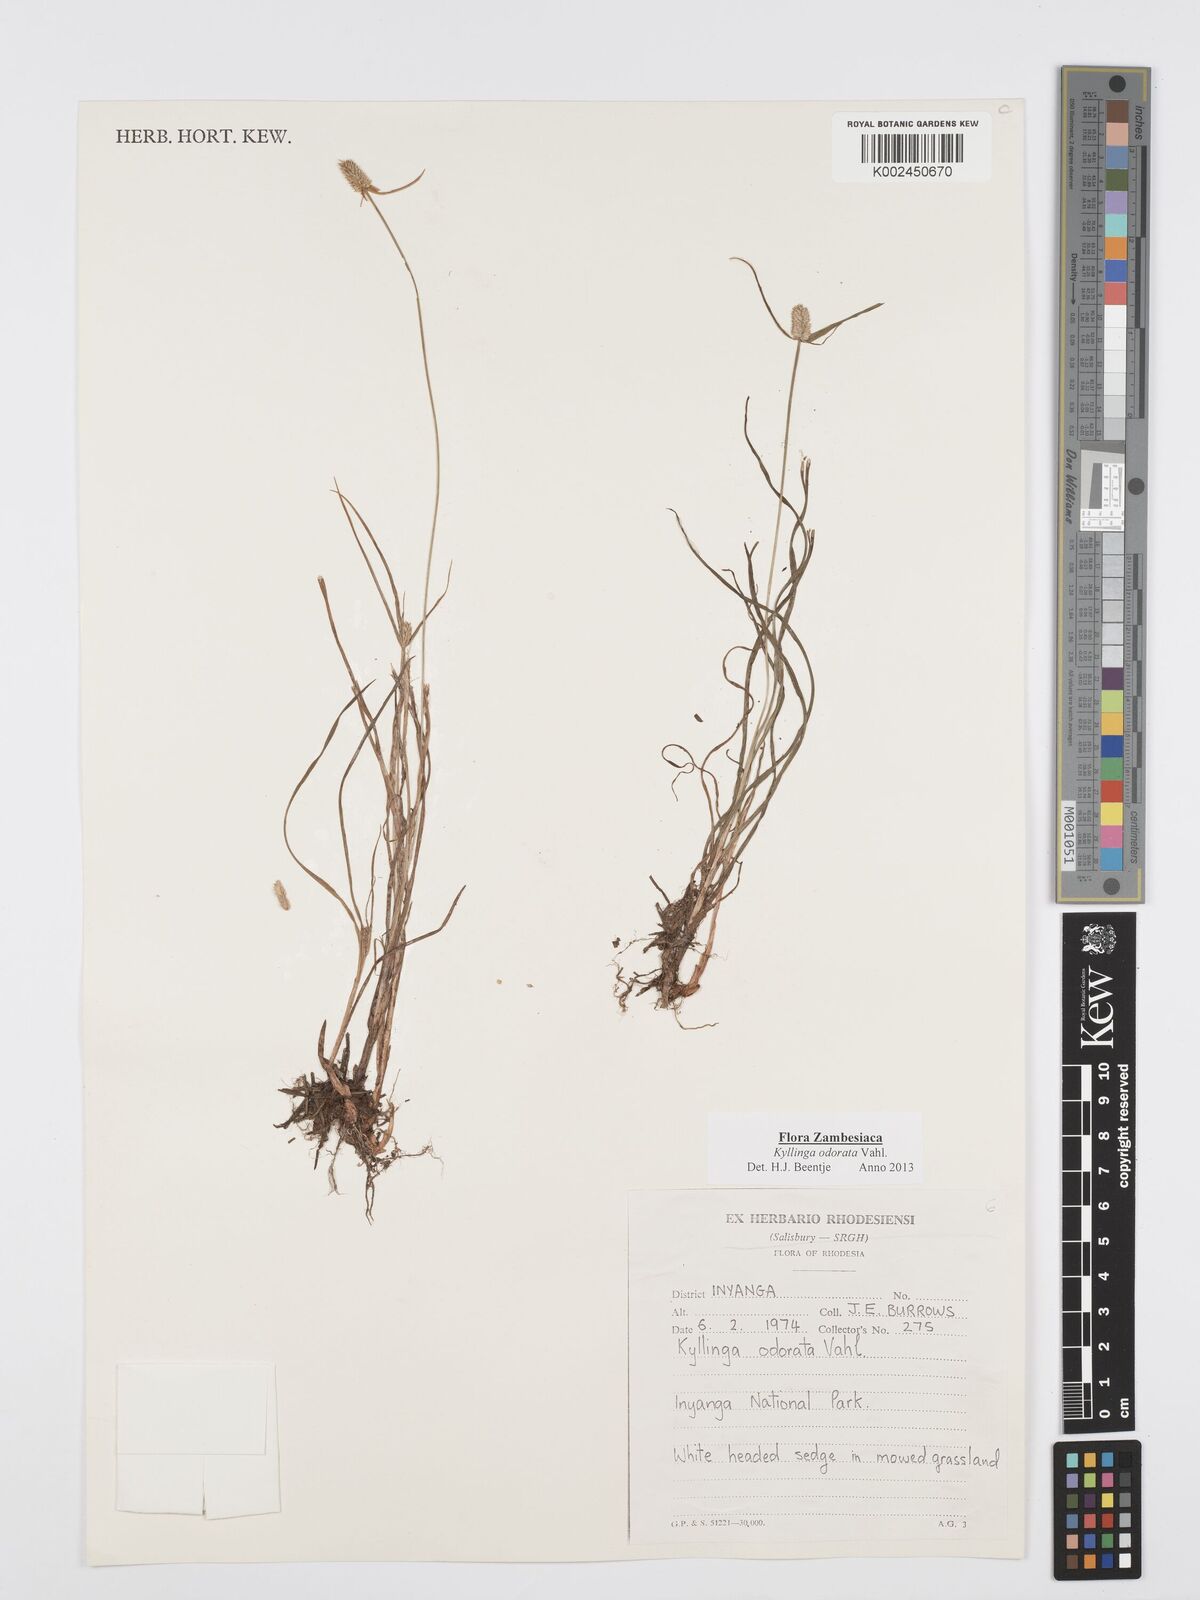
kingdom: Plantae
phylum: Tracheophyta
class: Liliopsida
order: Poales
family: Cyperaceae
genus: Cyperus
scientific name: Cyperus
